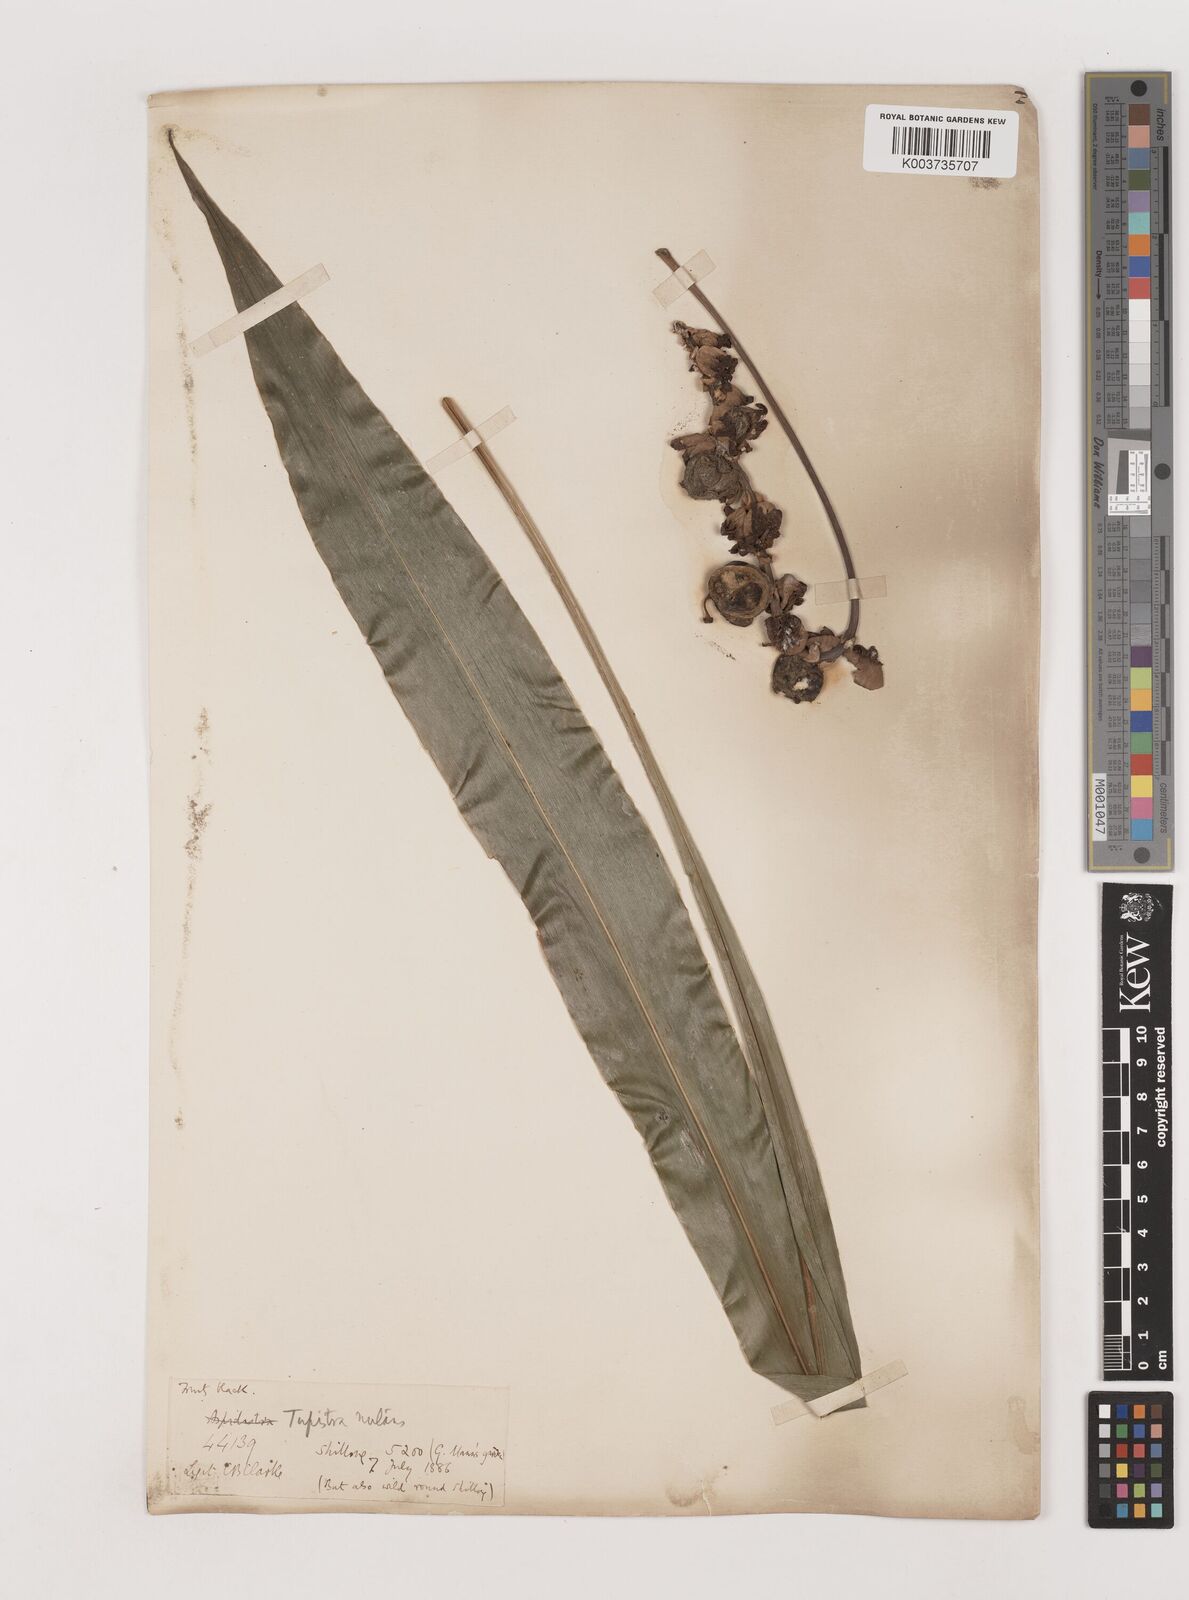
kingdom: Plantae
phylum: Tracheophyta
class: Liliopsida
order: Asparagales
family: Asparagaceae
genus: Tupistra
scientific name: Tupistra tupistroides
